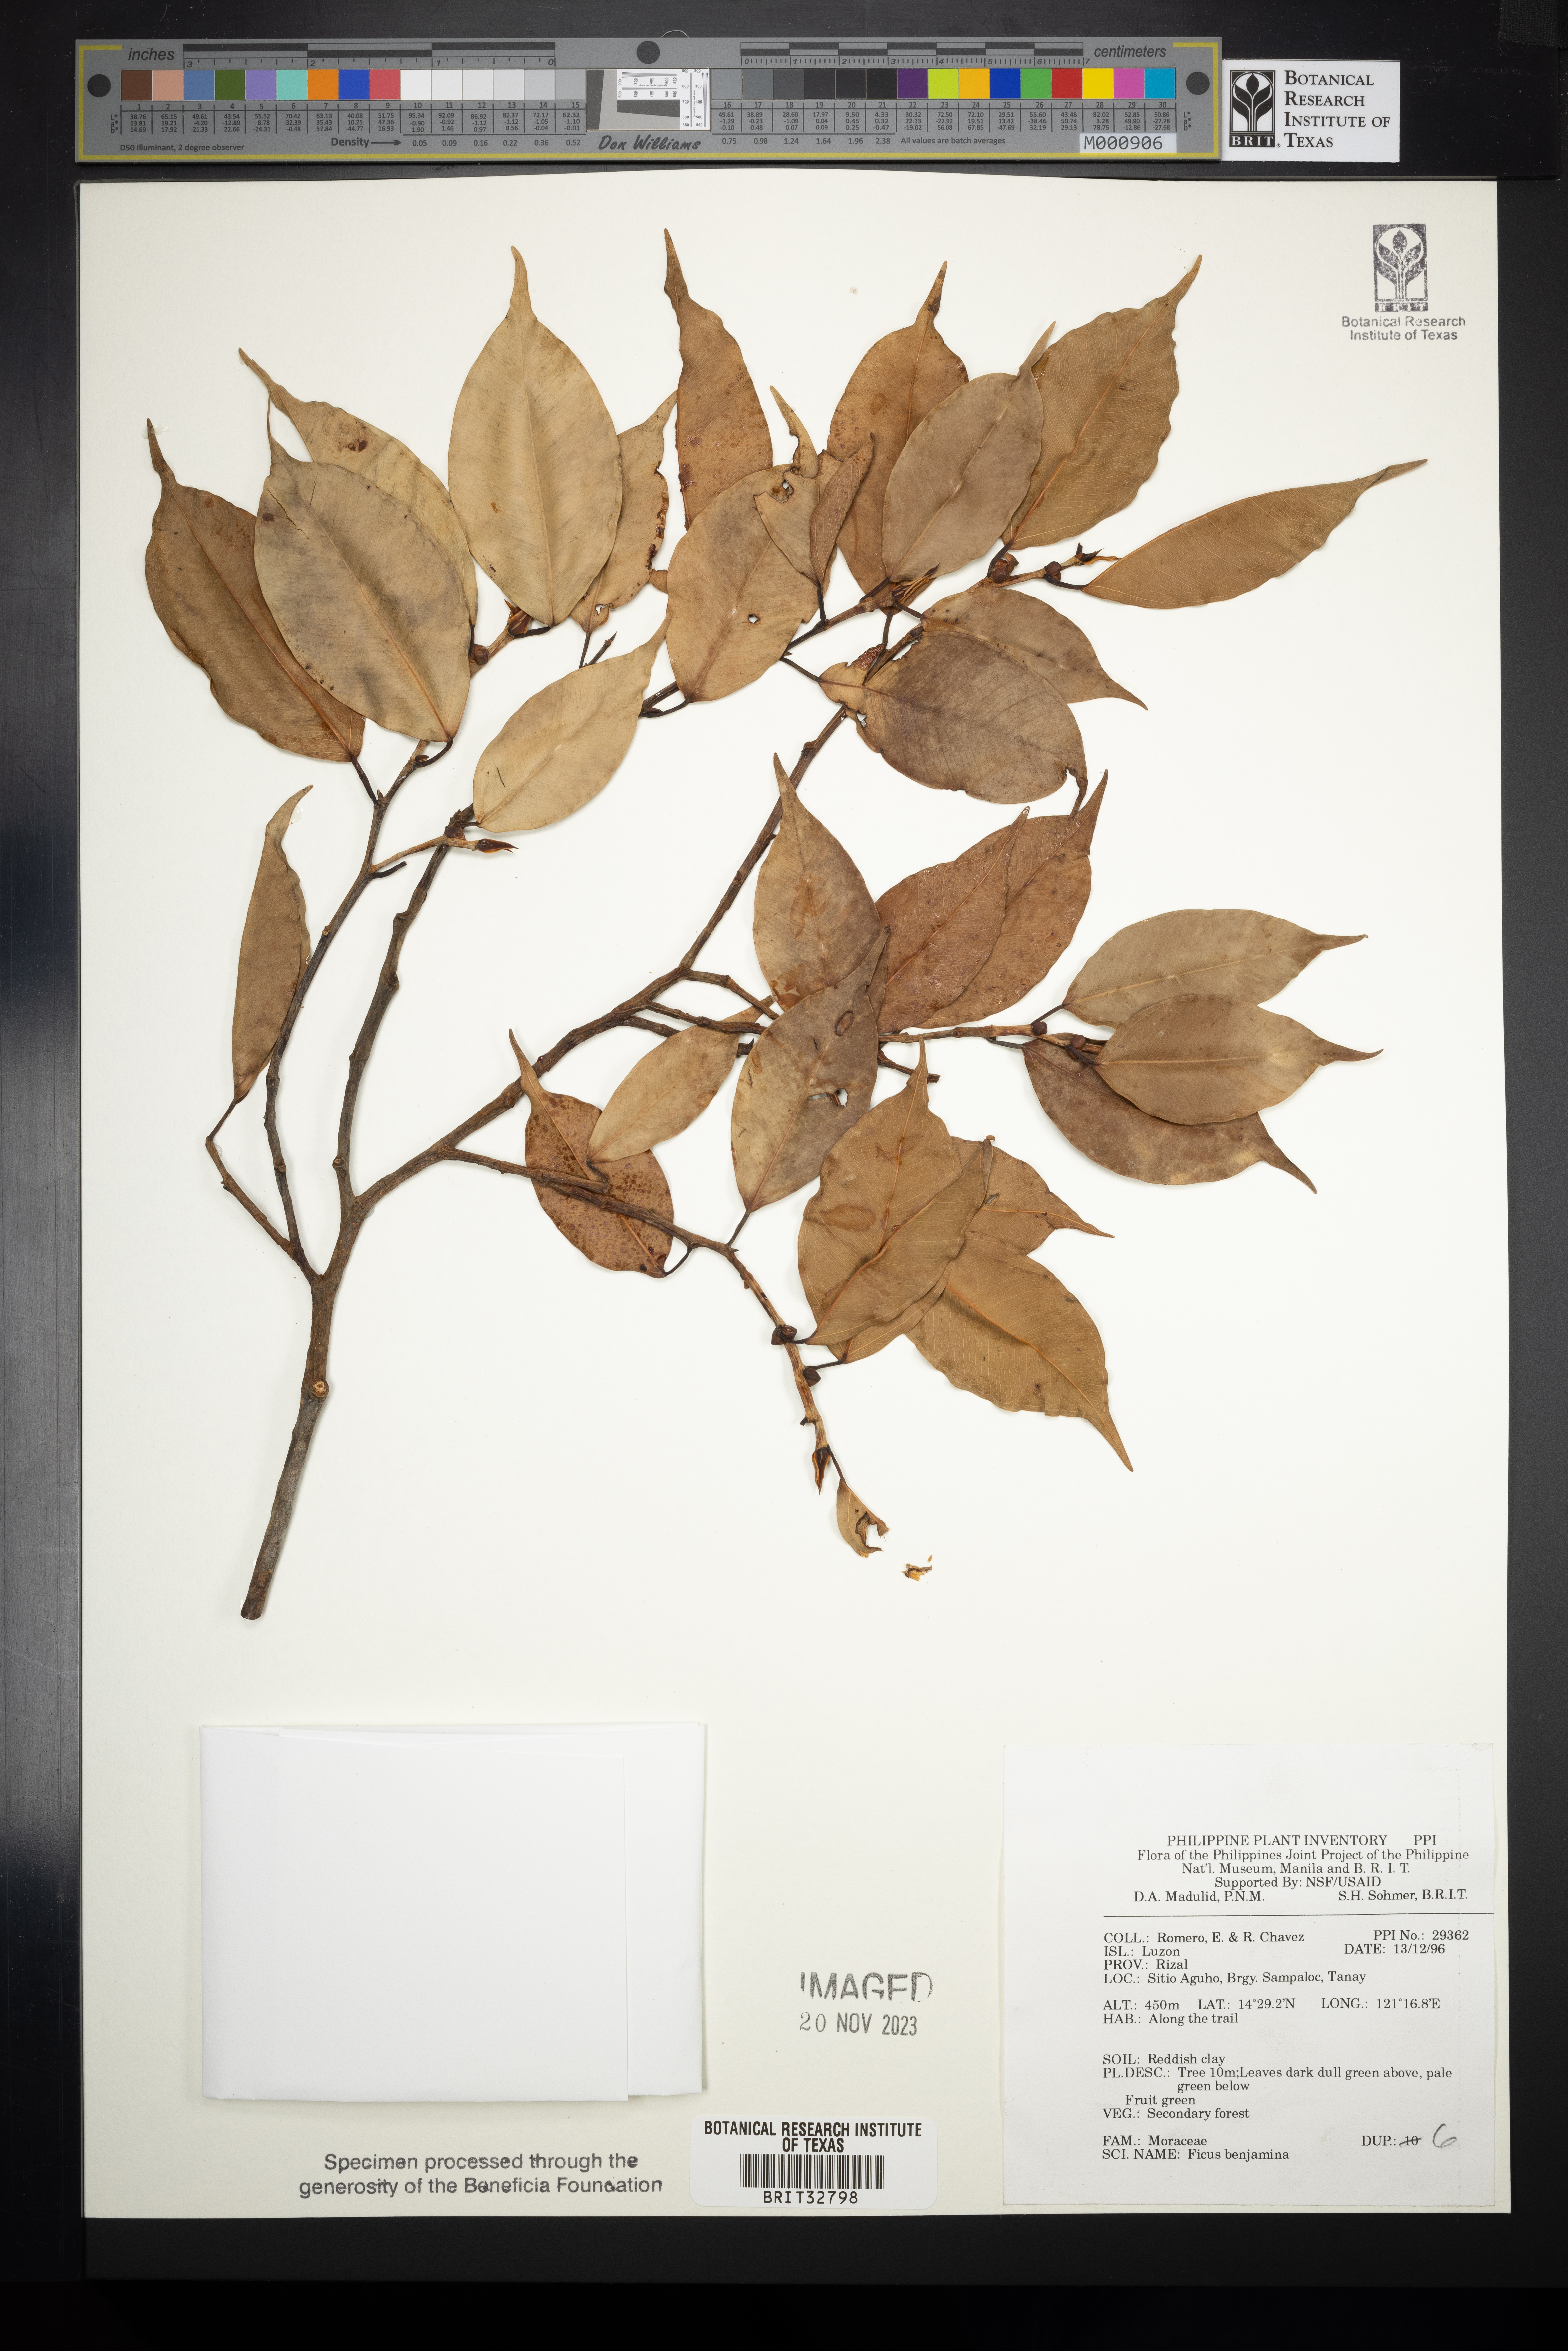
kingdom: Plantae
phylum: Tracheophyta
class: Magnoliopsida
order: Rosales
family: Moraceae
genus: Ficus
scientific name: Ficus benjamina
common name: Weeping fig
